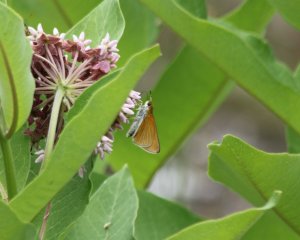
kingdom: Animalia
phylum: Arthropoda
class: Insecta
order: Lepidoptera
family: Hesperiidae
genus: Euphyes
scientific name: Euphyes bimacula
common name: Two-spotted Skipper
